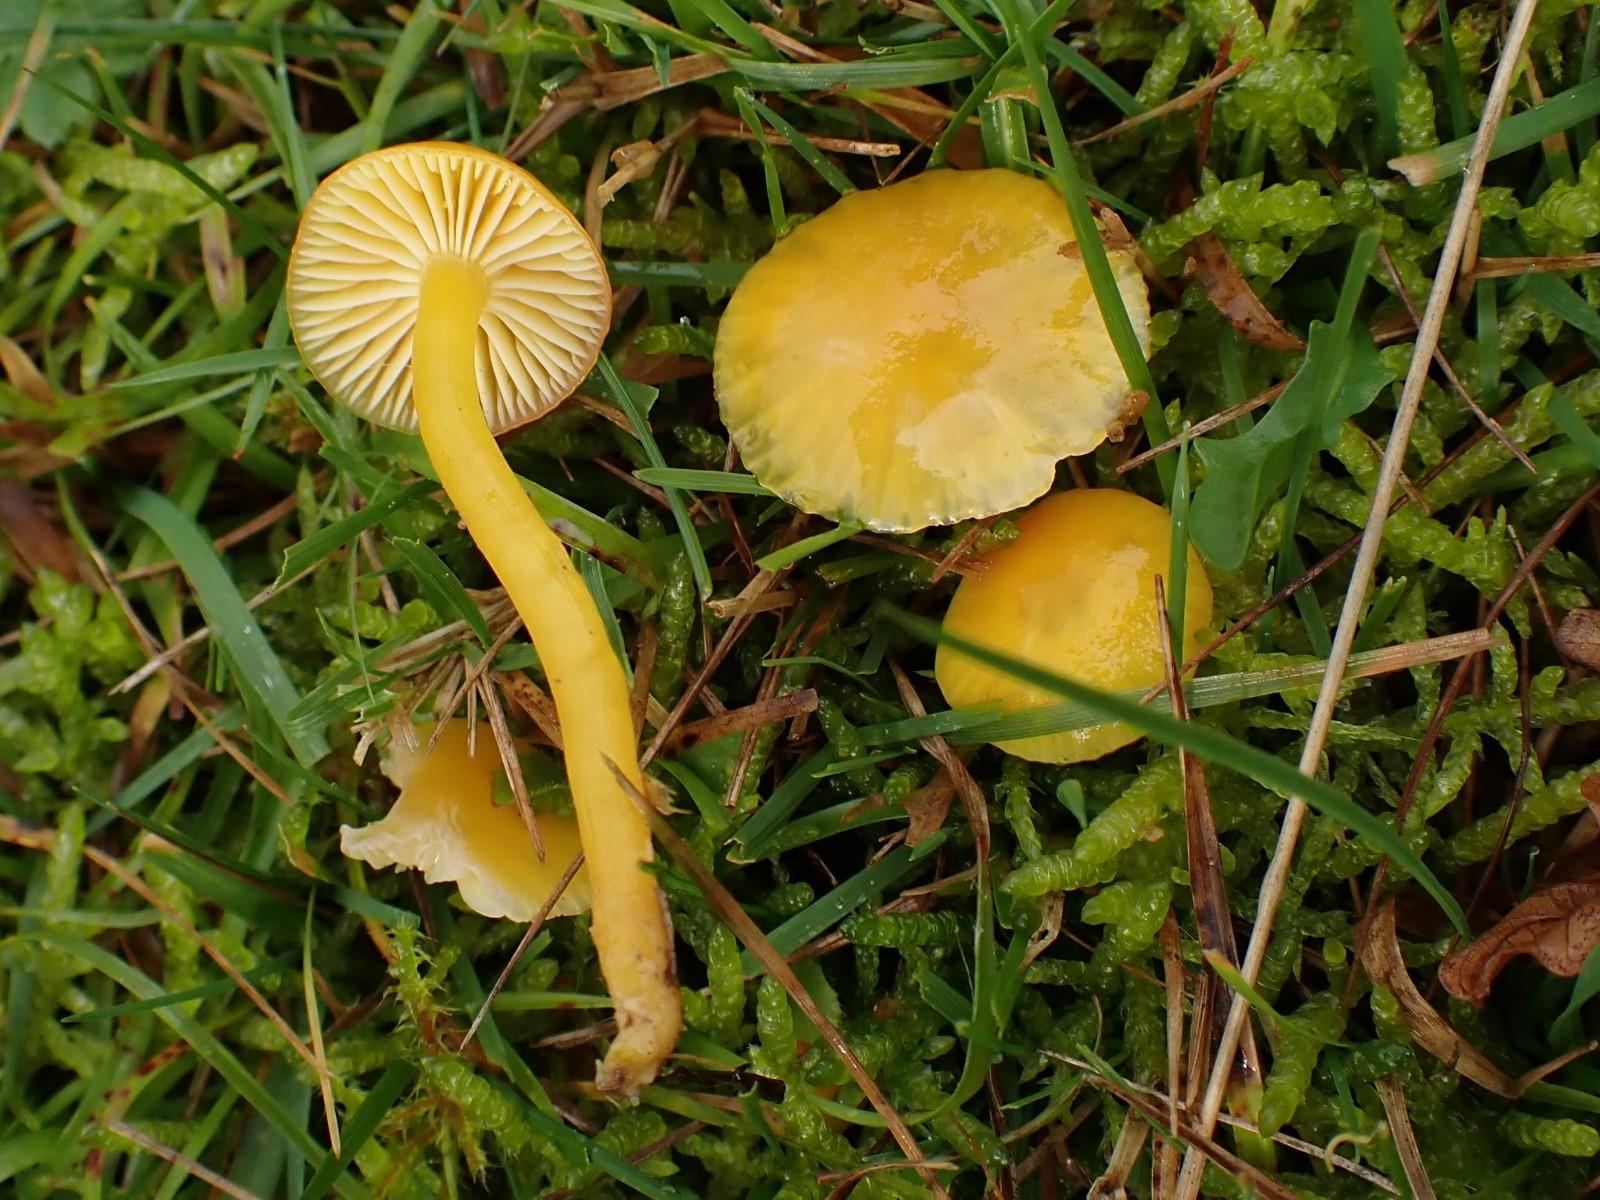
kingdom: Fungi
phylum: Basidiomycota
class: Agaricomycetes
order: Agaricales
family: Hygrophoraceae
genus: Hygrocybe
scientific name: Hygrocybe ceracea
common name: voksgul vokshat
